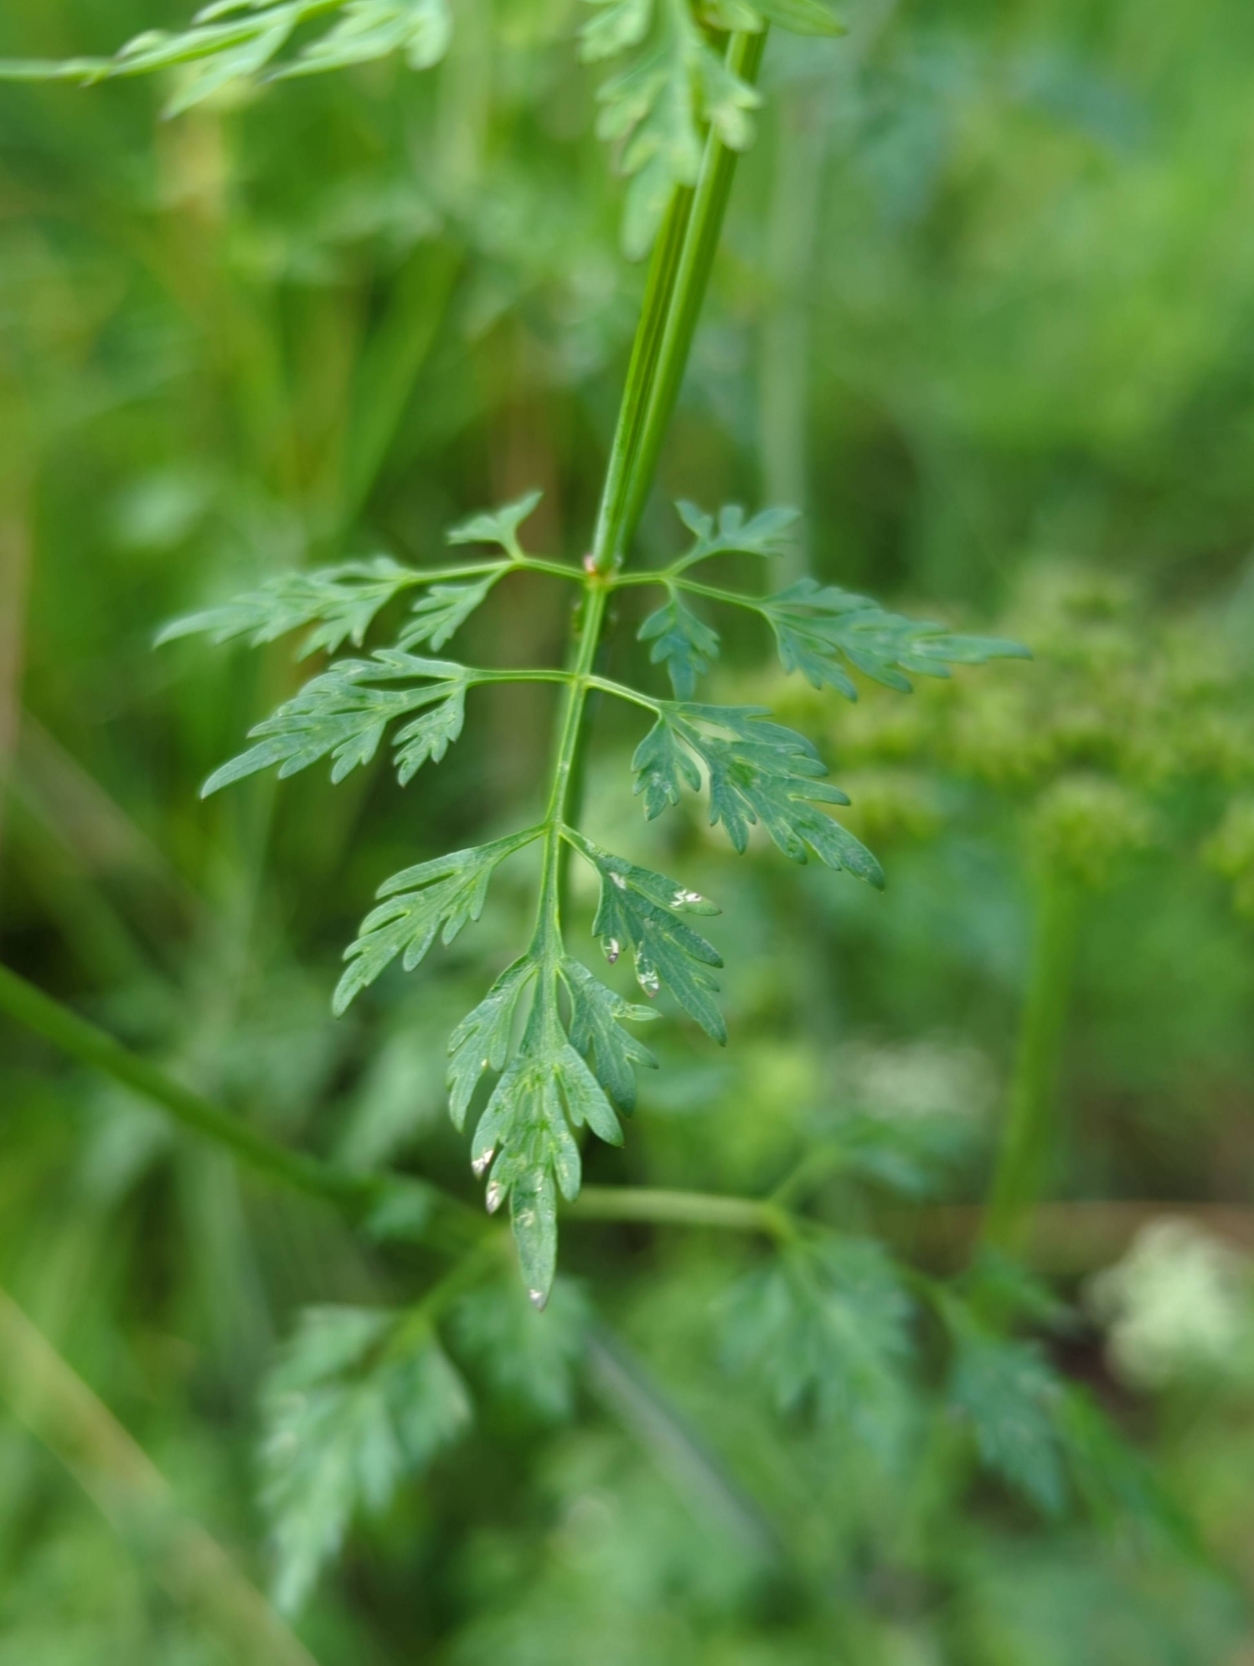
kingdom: Plantae
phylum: Tracheophyta
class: Magnoliopsida
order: Apiales
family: Apiaceae
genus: Aethusa
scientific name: Aethusa cynapium
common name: Hundepersille
